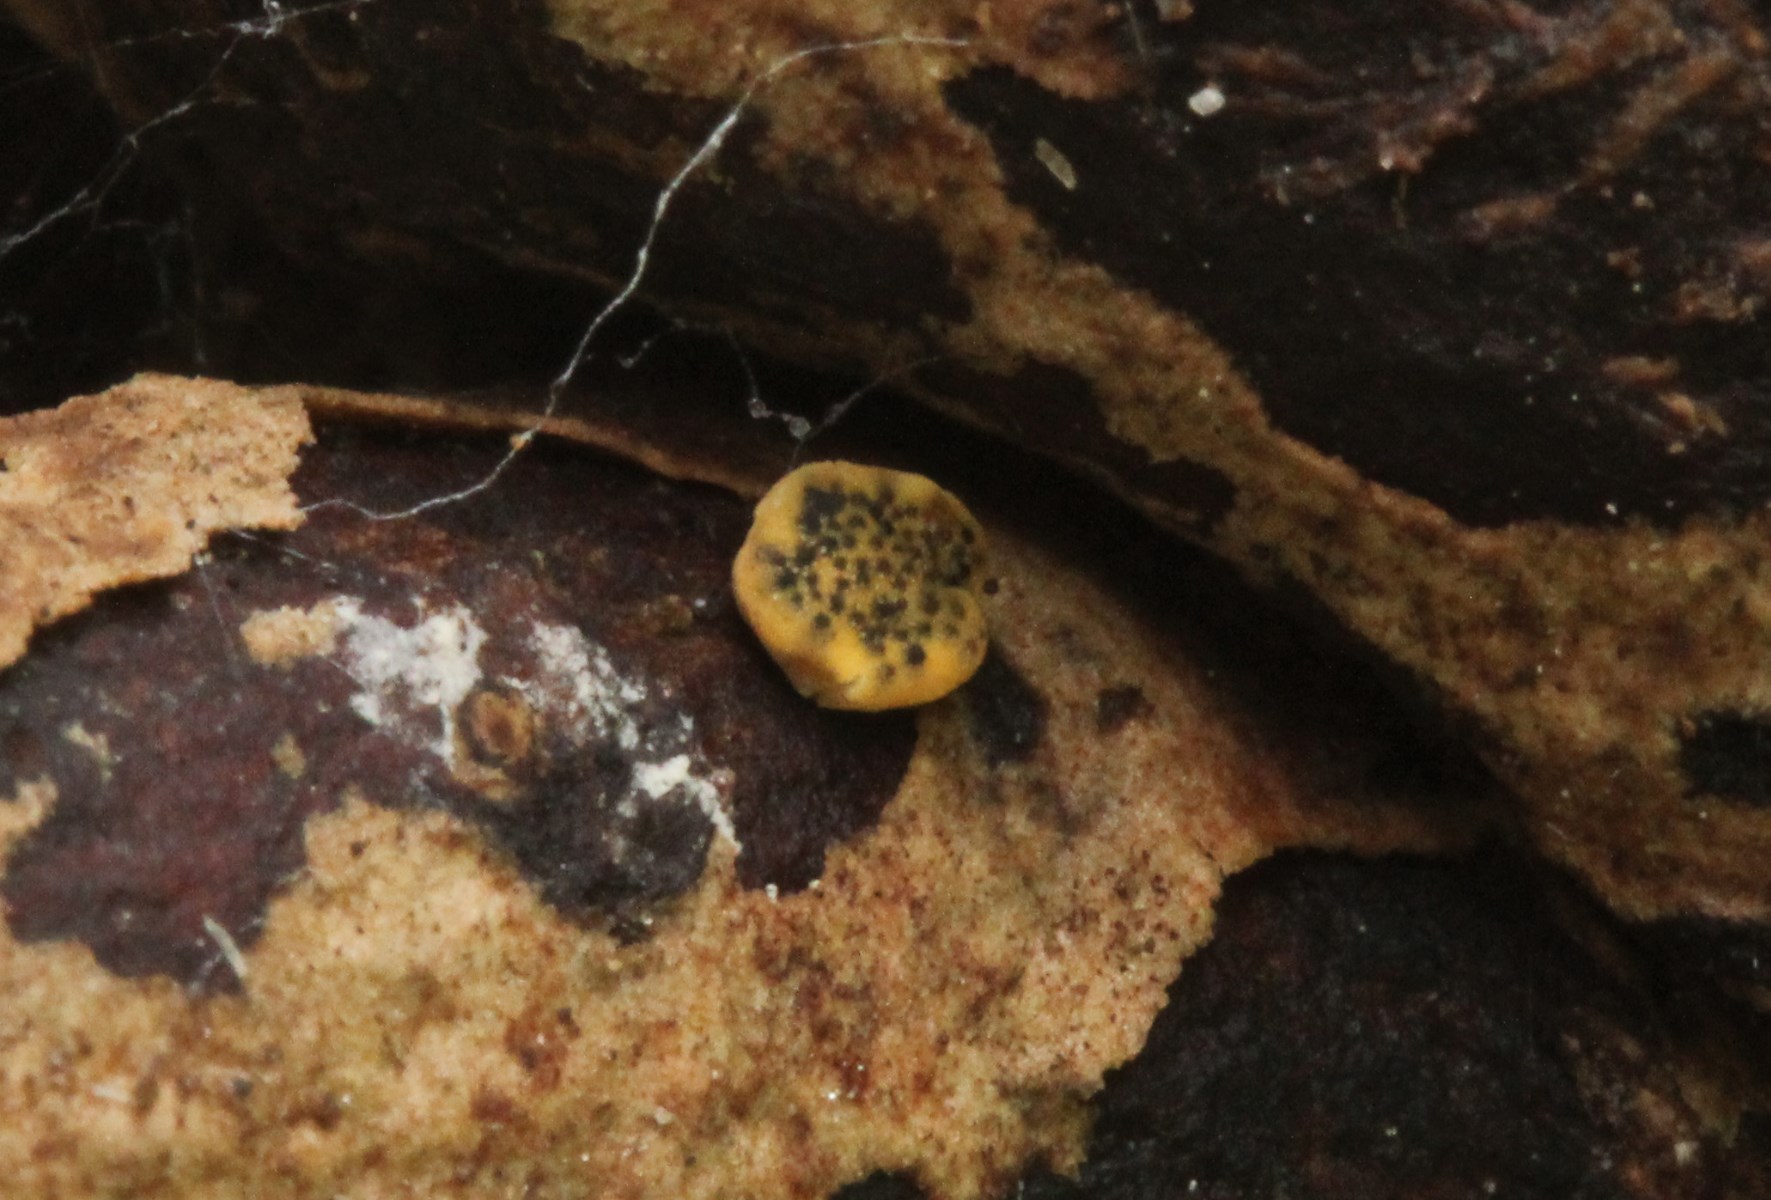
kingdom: Fungi
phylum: Ascomycota
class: Sordariomycetes
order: Hypocreales
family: Hypocreaceae
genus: Trichoderma
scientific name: Trichoderma aureoviride
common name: æggegul kødkerne
